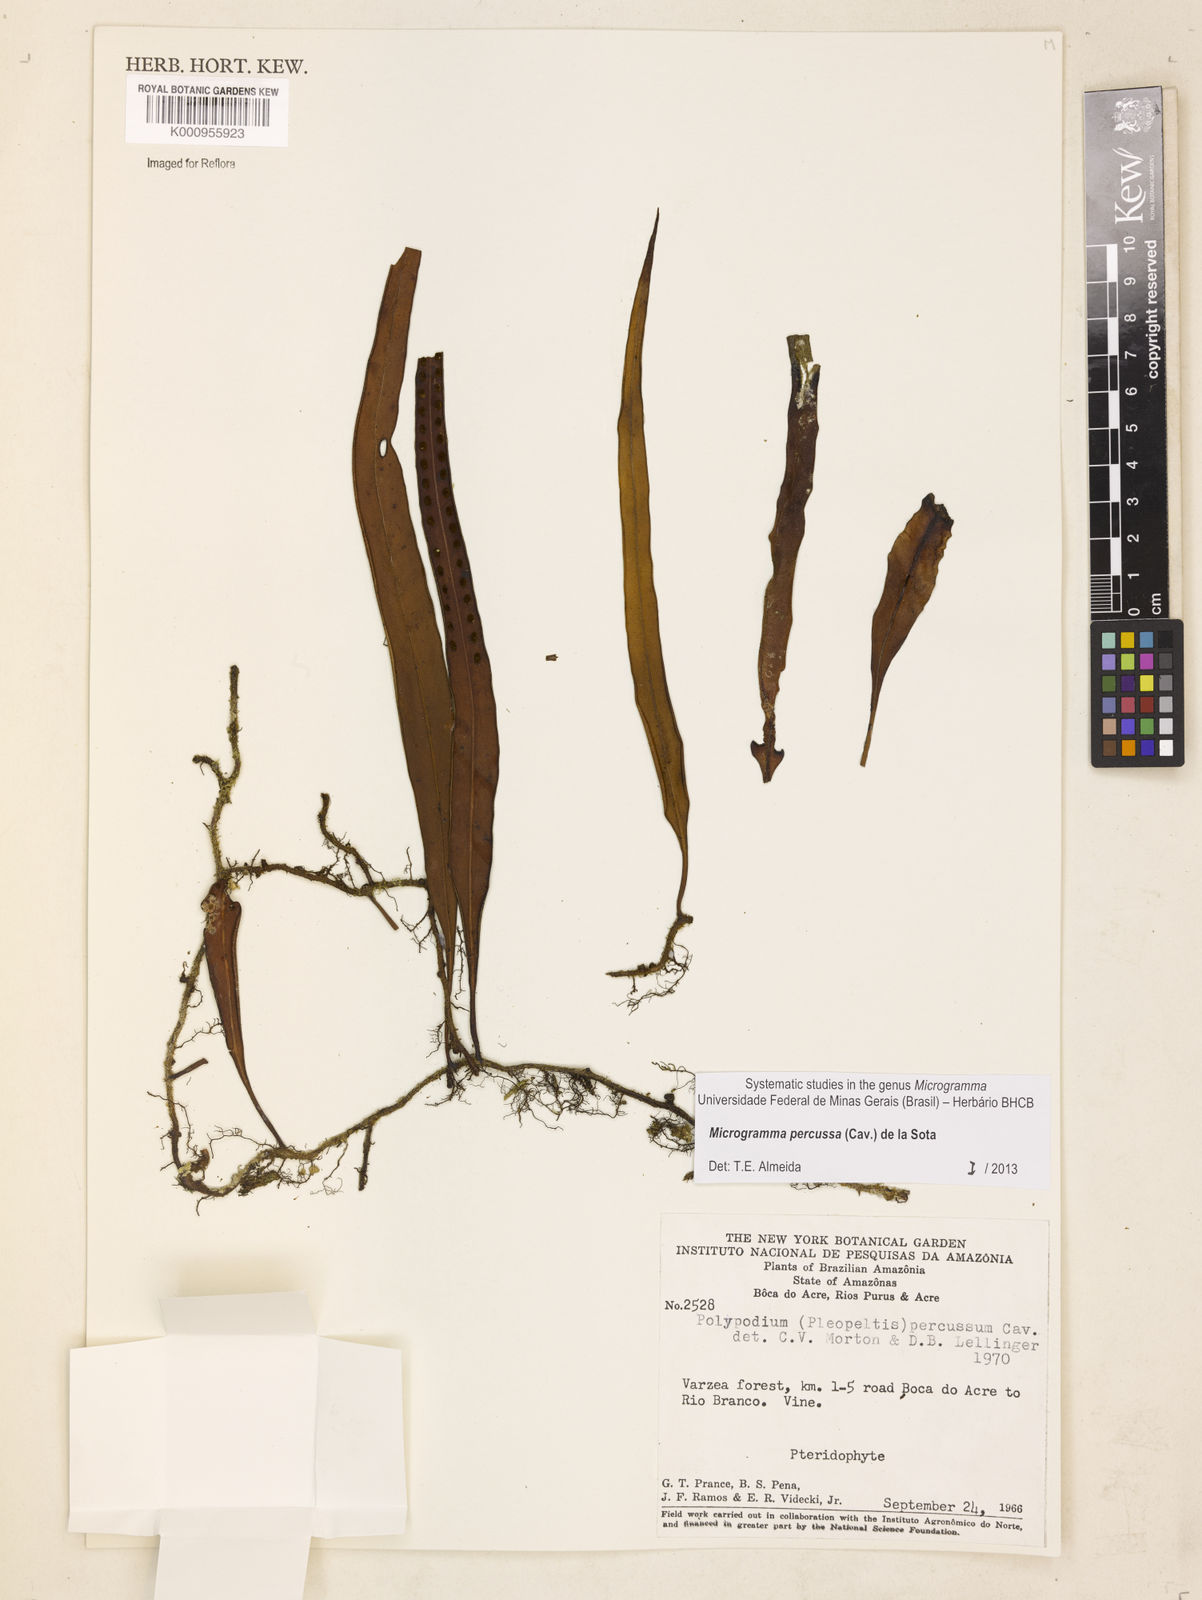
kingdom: Plantae
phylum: Tracheophyta
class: Polypodiopsida
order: Polypodiales
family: Polypodiaceae
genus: Microgramma
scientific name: Microgramma percussa
